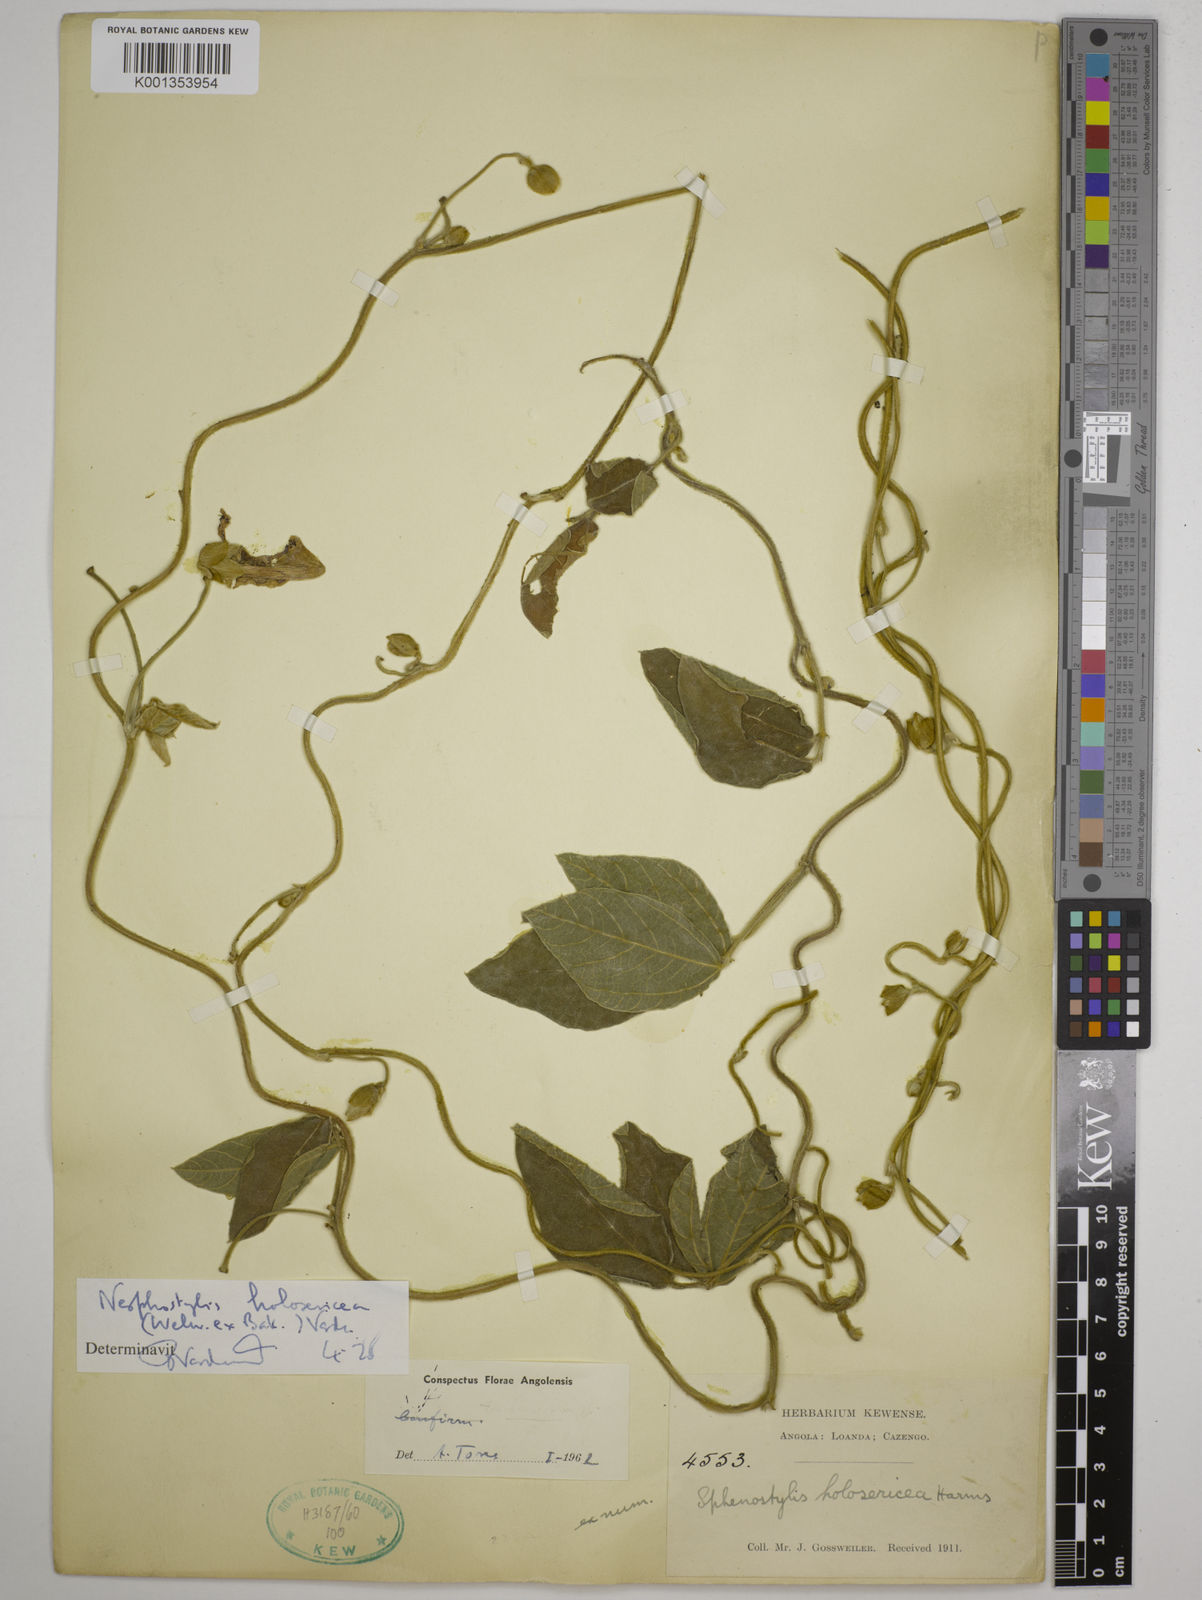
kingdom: Plantae
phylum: Tracheophyta
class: Magnoliopsida
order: Fabales
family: Fabaceae
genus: Nesphostylis
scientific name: Nesphostylis holosericea
